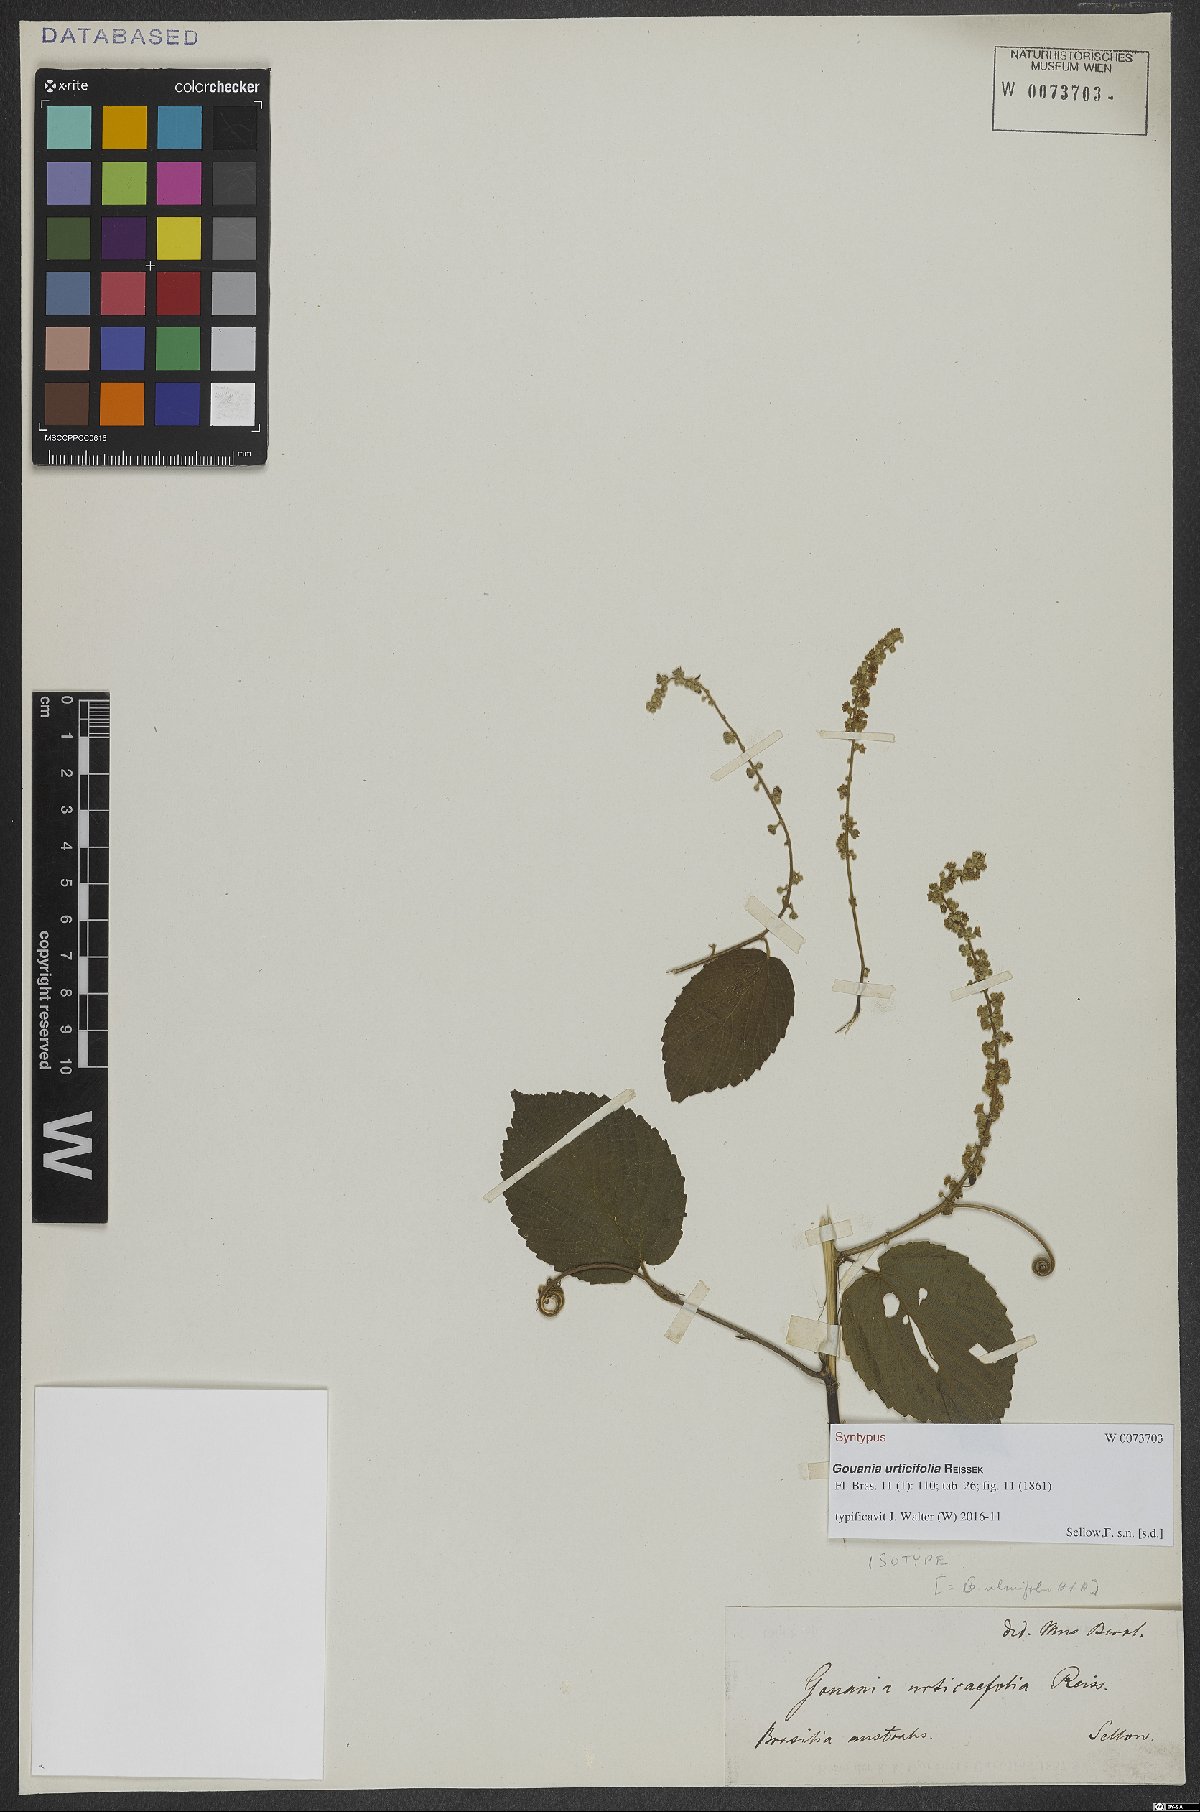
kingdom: Plantae
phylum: Tracheophyta
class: Magnoliopsida
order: Rosales
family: Rhamnaceae
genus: Gouania
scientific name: Gouania ulmifolia
